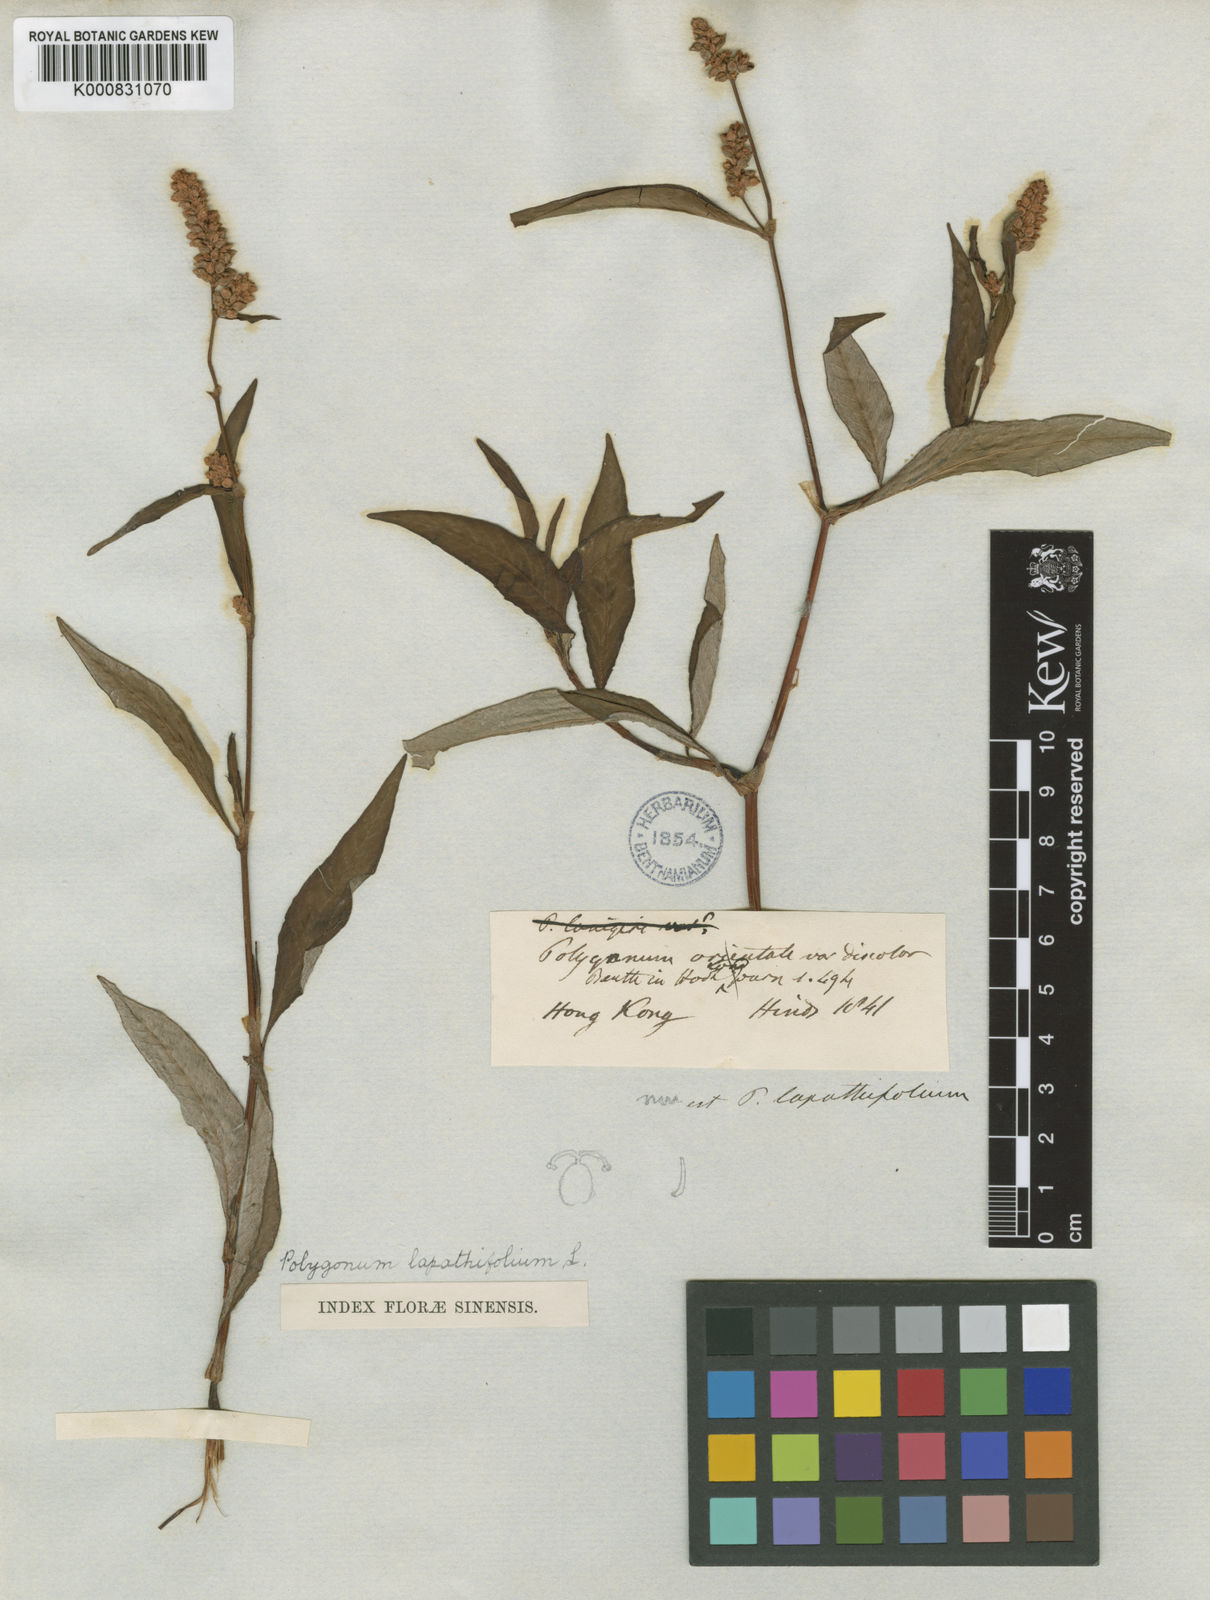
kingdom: Plantae
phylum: Tracheophyta
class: Magnoliopsida
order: Caryophyllales
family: Polygonaceae
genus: Persicaria
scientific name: Persicaria lapathifolia
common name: Curlytop knotweed
